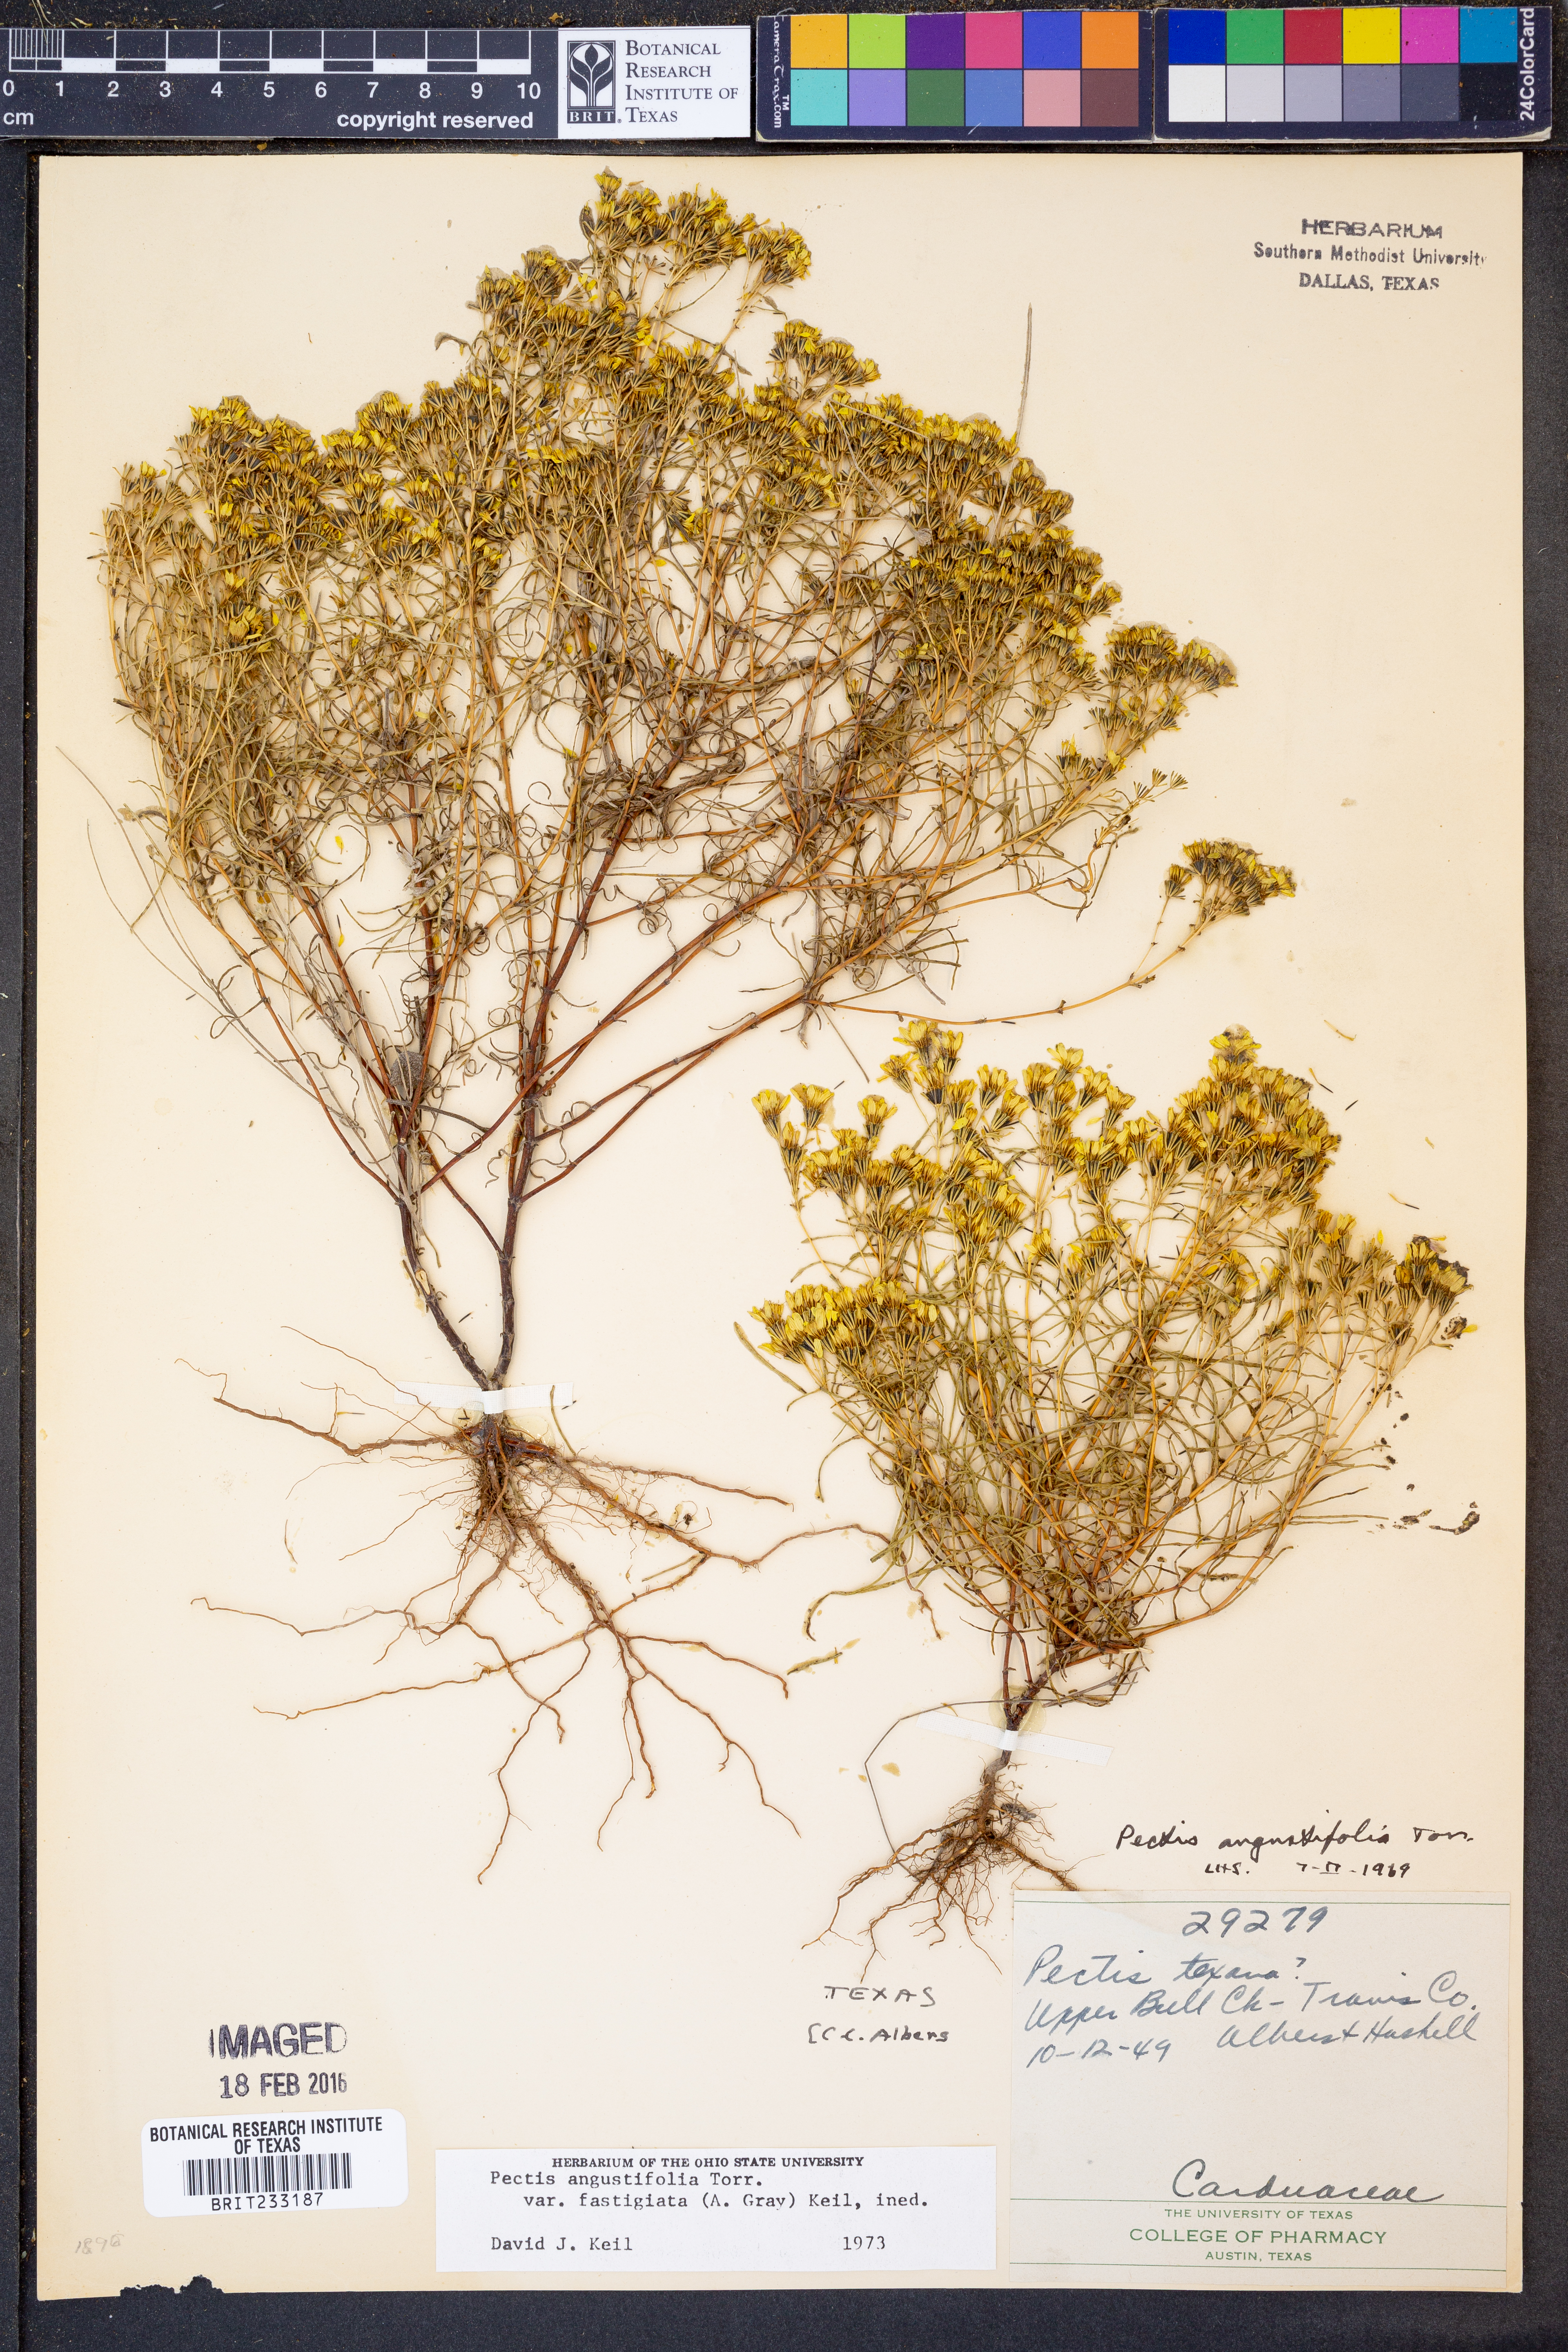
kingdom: Plantae
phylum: Tracheophyta
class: Magnoliopsida
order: Asterales
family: Asteraceae
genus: Pectis
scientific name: Pectis angustifolia
